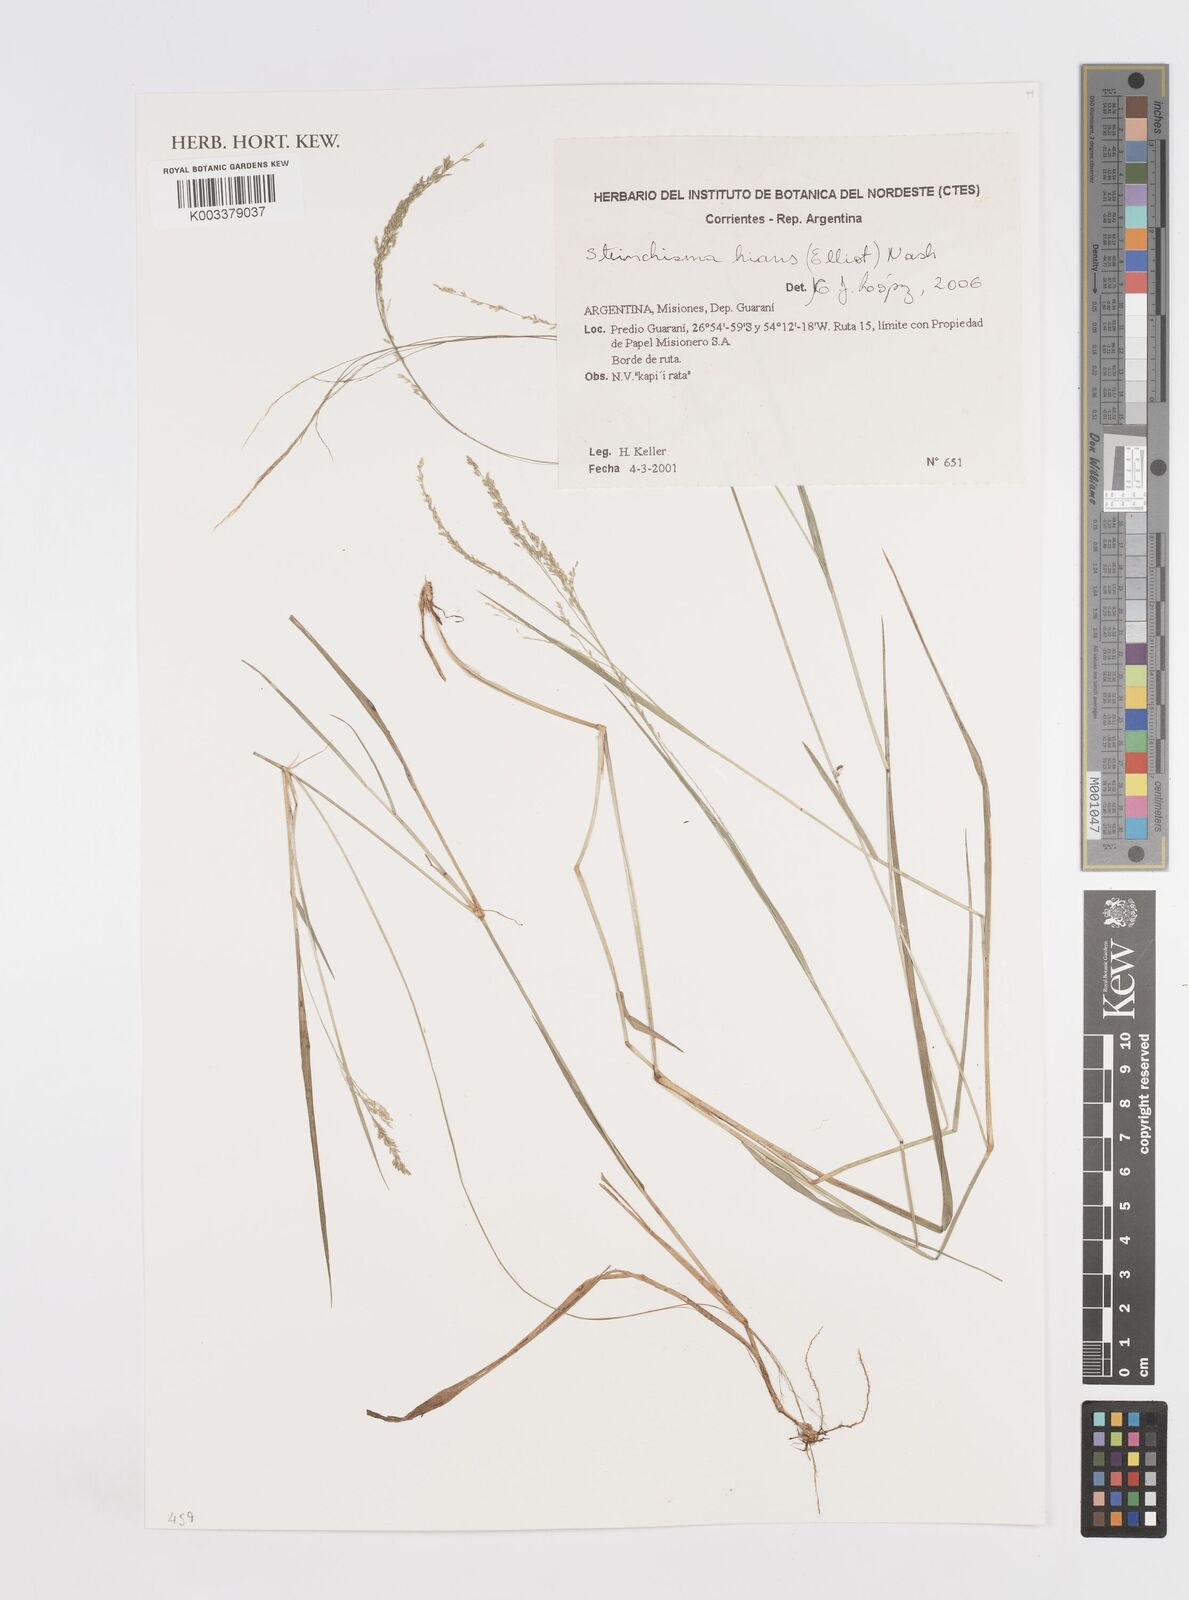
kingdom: Plantae
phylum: Tracheophyta
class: Liliopsida
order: Poales
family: Poaceae
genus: Steinchisma
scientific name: Steinchisma hians
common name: Gaping panic grass
